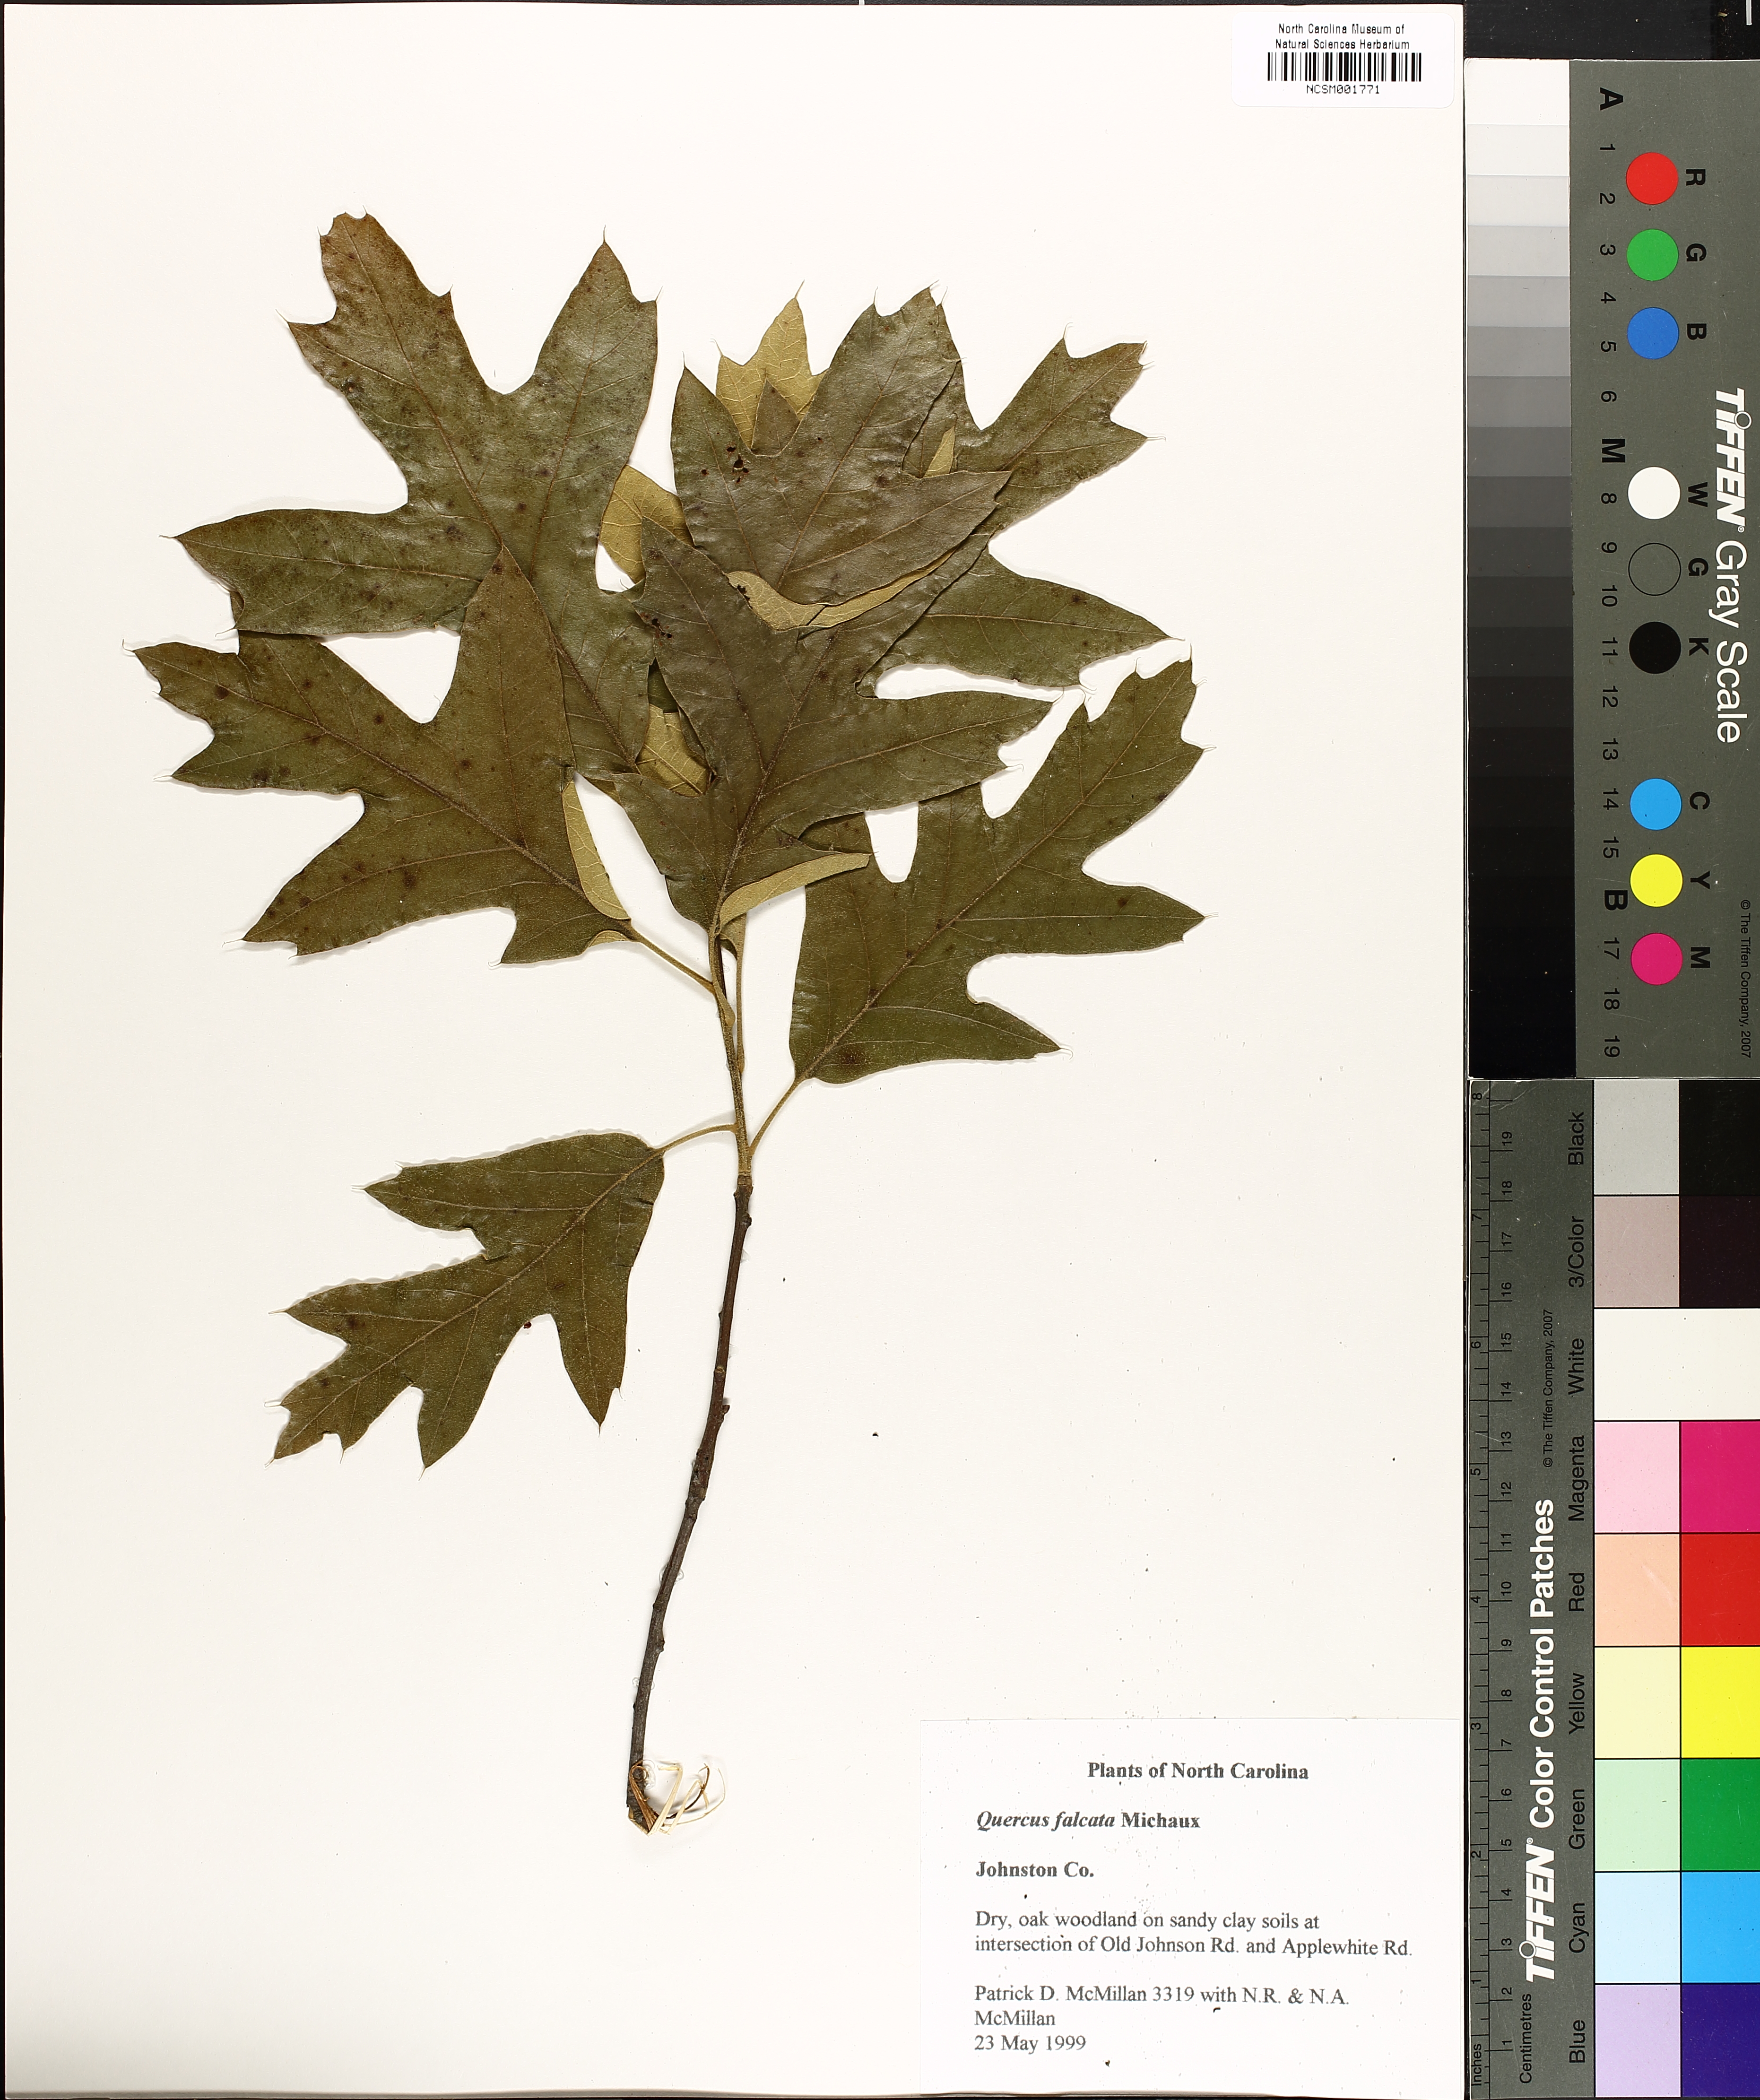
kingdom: Plantae
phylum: Tracheophyta
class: Magnoliopsida
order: Fagales
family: Fagaceae
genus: Quercus
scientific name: Quercus falcata
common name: Southern red oak
